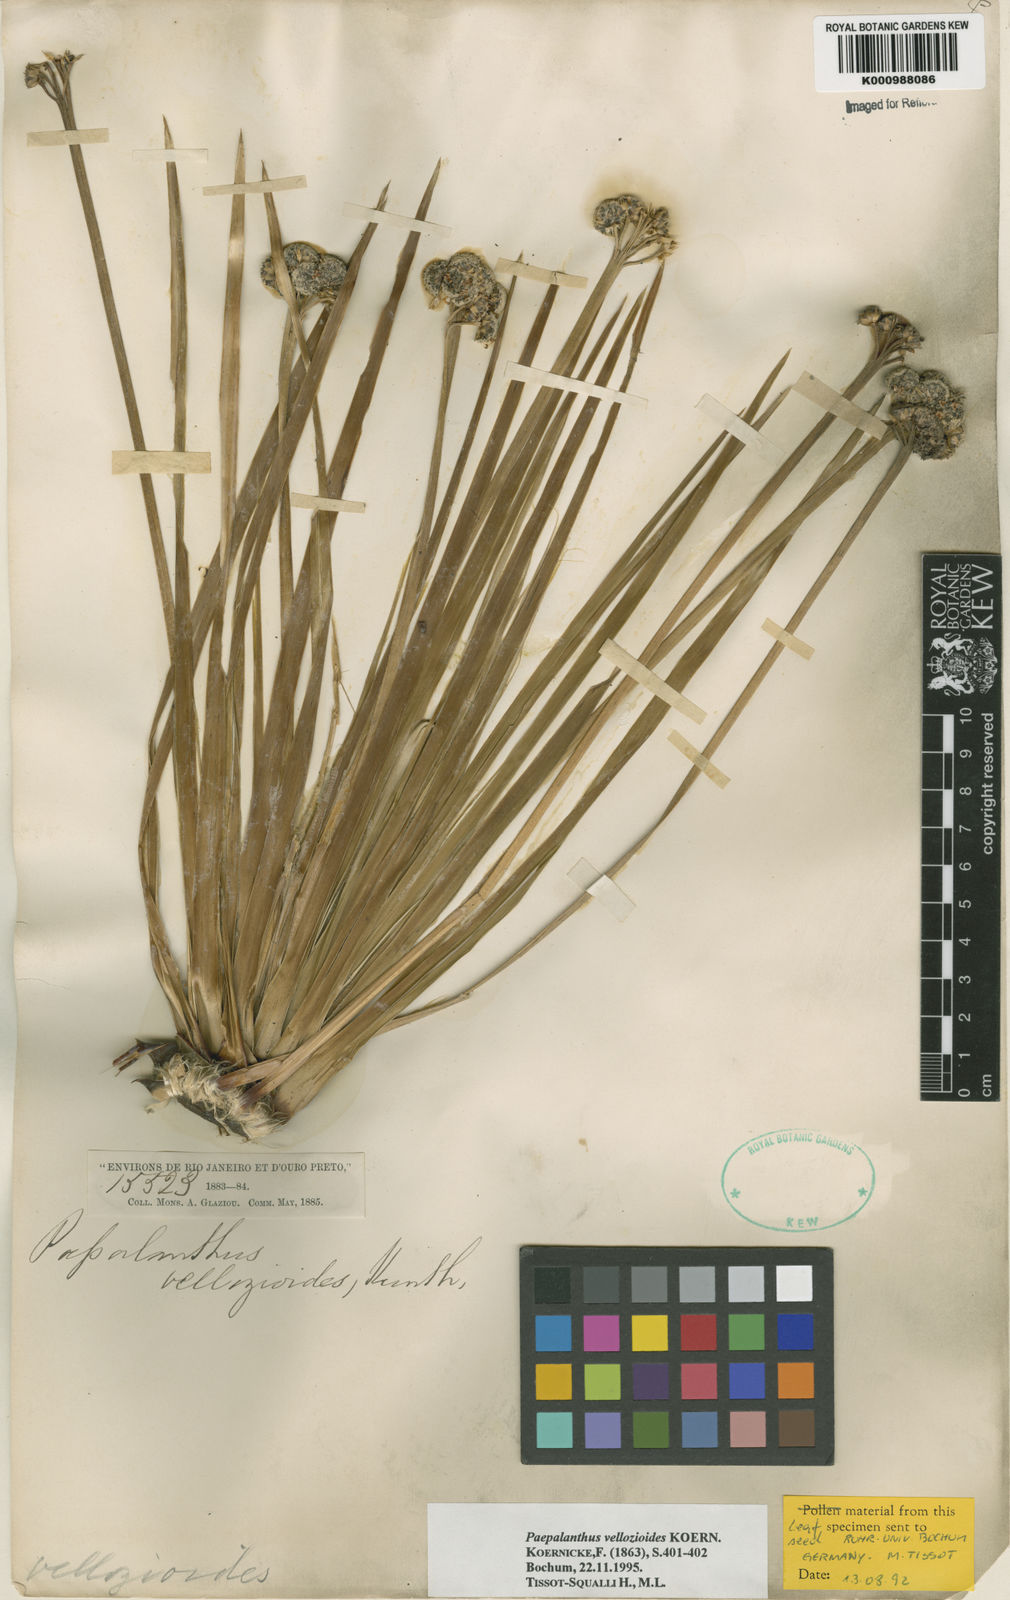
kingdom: Plantae
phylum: Tracheophyta
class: Liliopsida
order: Poales
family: Eriocaulaceae
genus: Paepalanthus
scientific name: Paepalanthus
